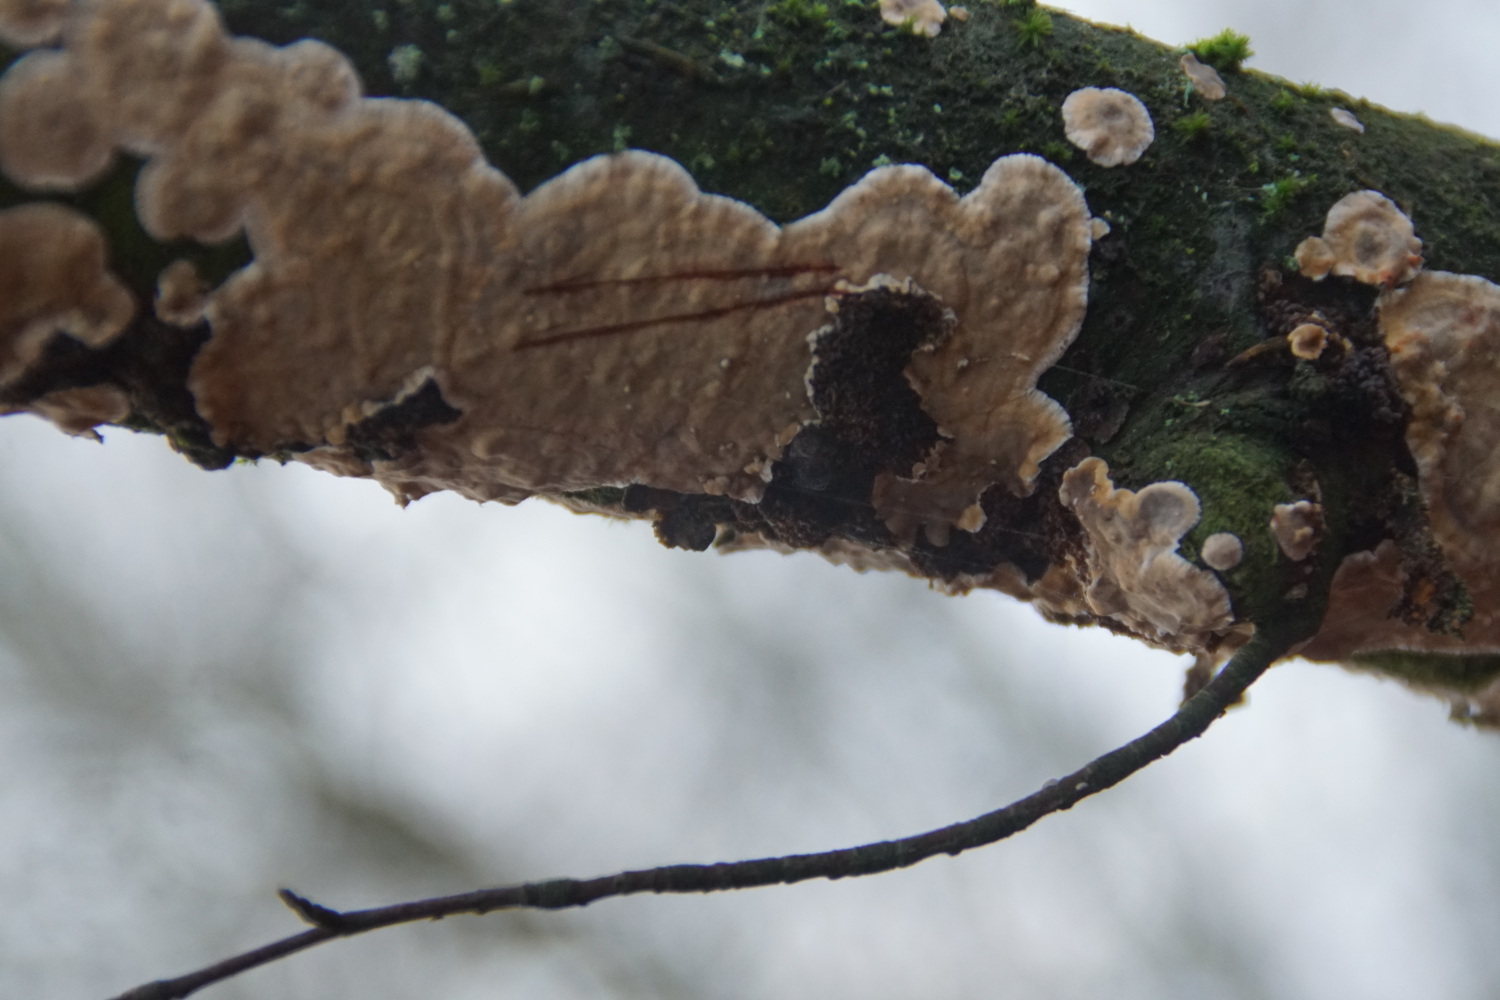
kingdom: Fungi
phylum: Basidiomycota
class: Agaricomycetes
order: Russulales
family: Stereaceae
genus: Stereum
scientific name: Stereum rugosum
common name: rynket lædersvamp
